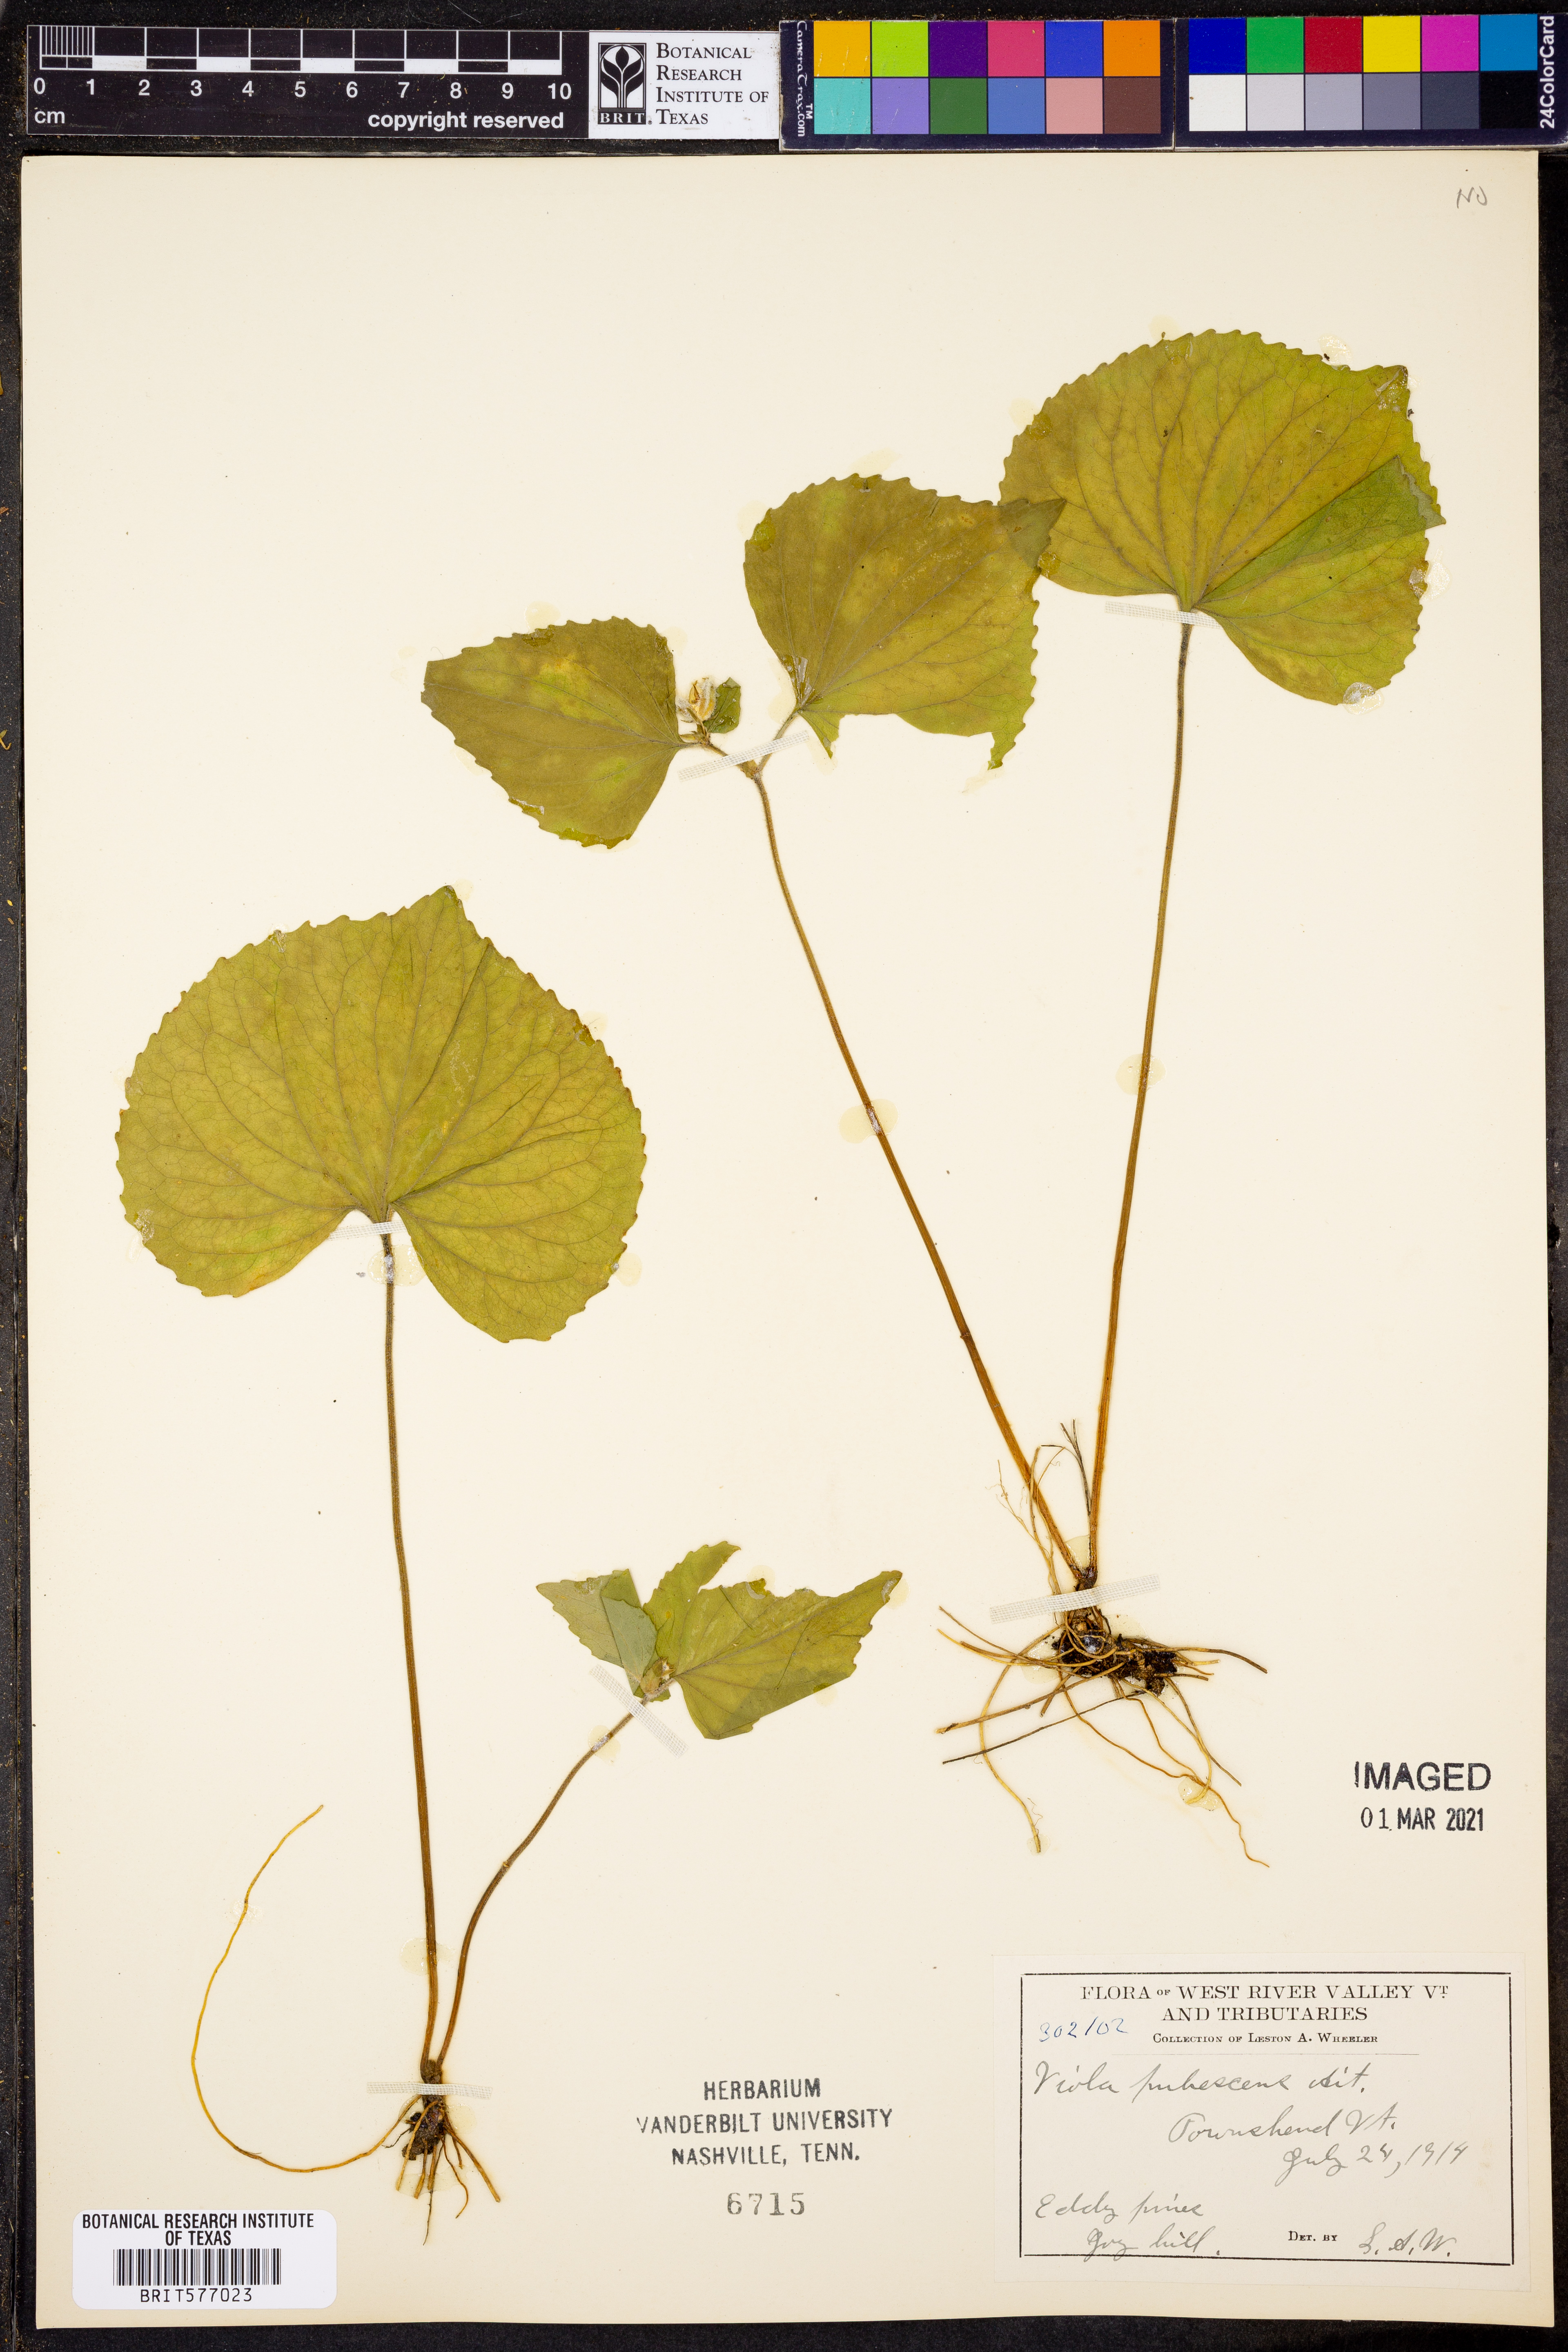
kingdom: Plantae
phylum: Tracheophyta
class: Magnoliopsida
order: Malpighiales
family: Violaceae
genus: Viola
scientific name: Viola pubescens
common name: Yellow forest violet
